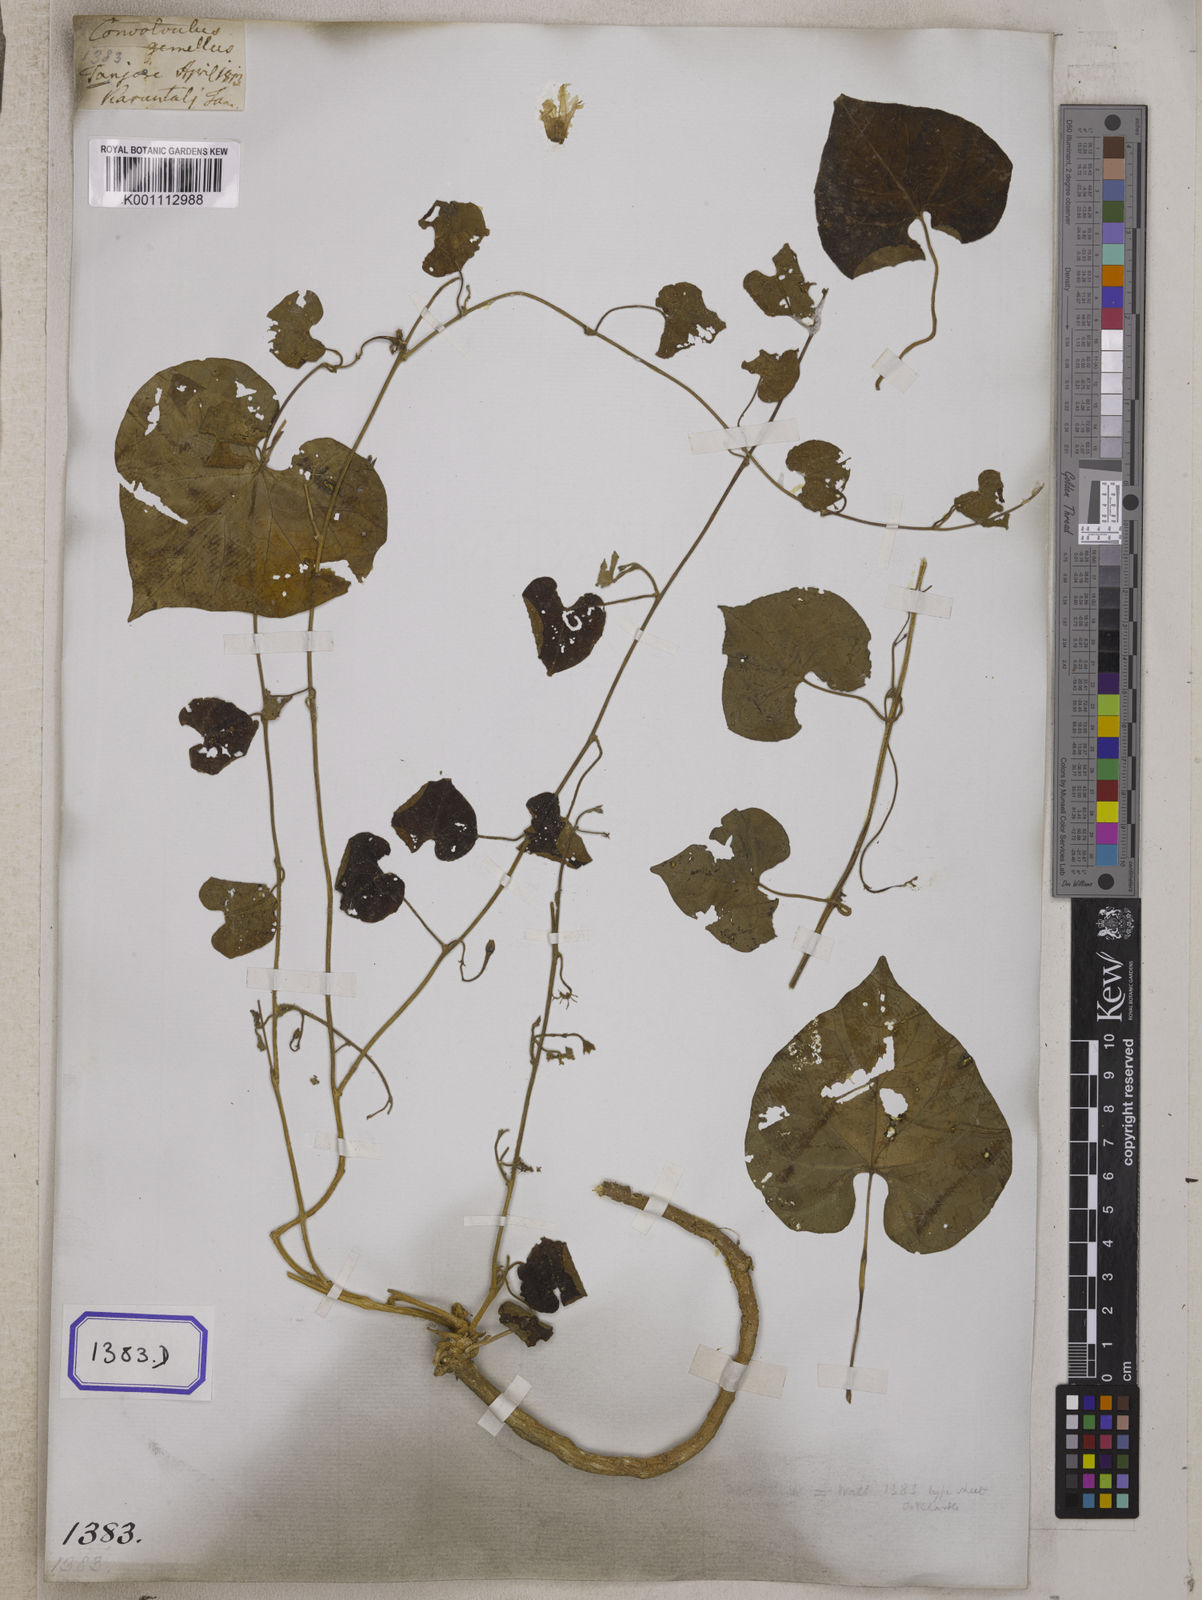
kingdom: Plantae
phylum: Tracheophyta
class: Magnoliopsida
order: Solanales
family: Convolvulaceae
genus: Convolvulus
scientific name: Convolvulus
